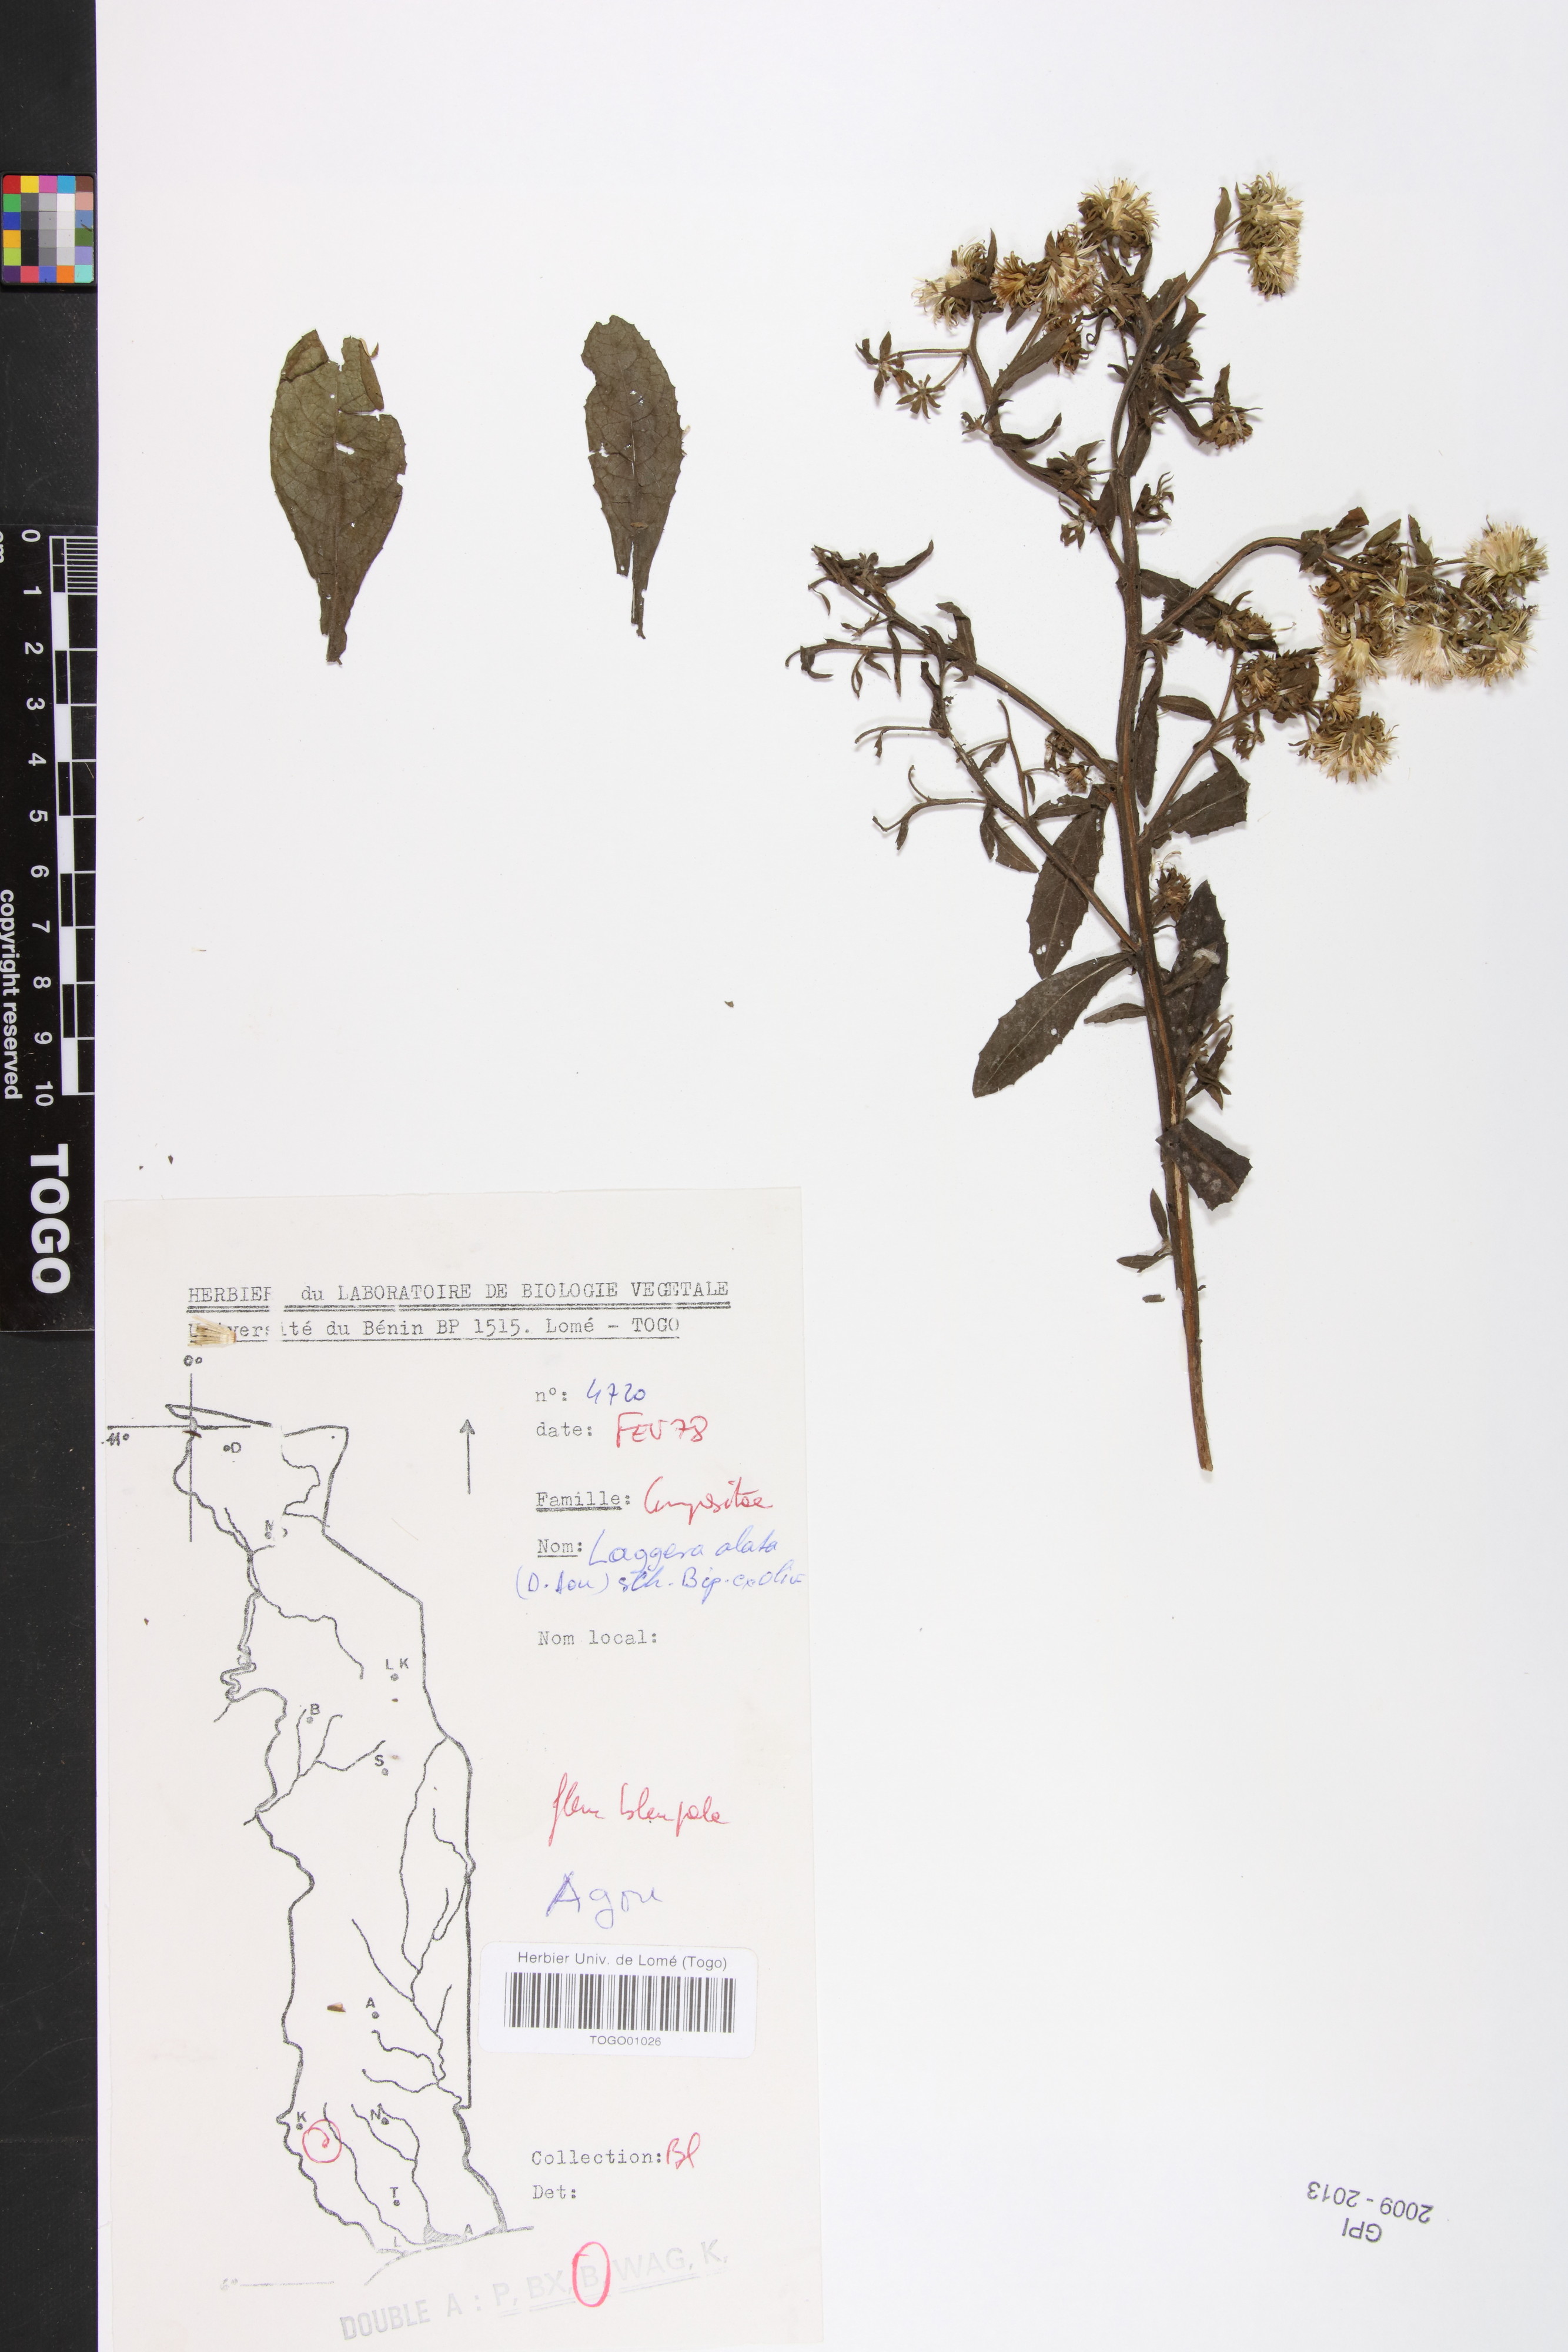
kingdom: Plantae
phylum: Tracheophyta
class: Magnoliopsida
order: Asterales
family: Asteraceae
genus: Laggera
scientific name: Laggera alata
